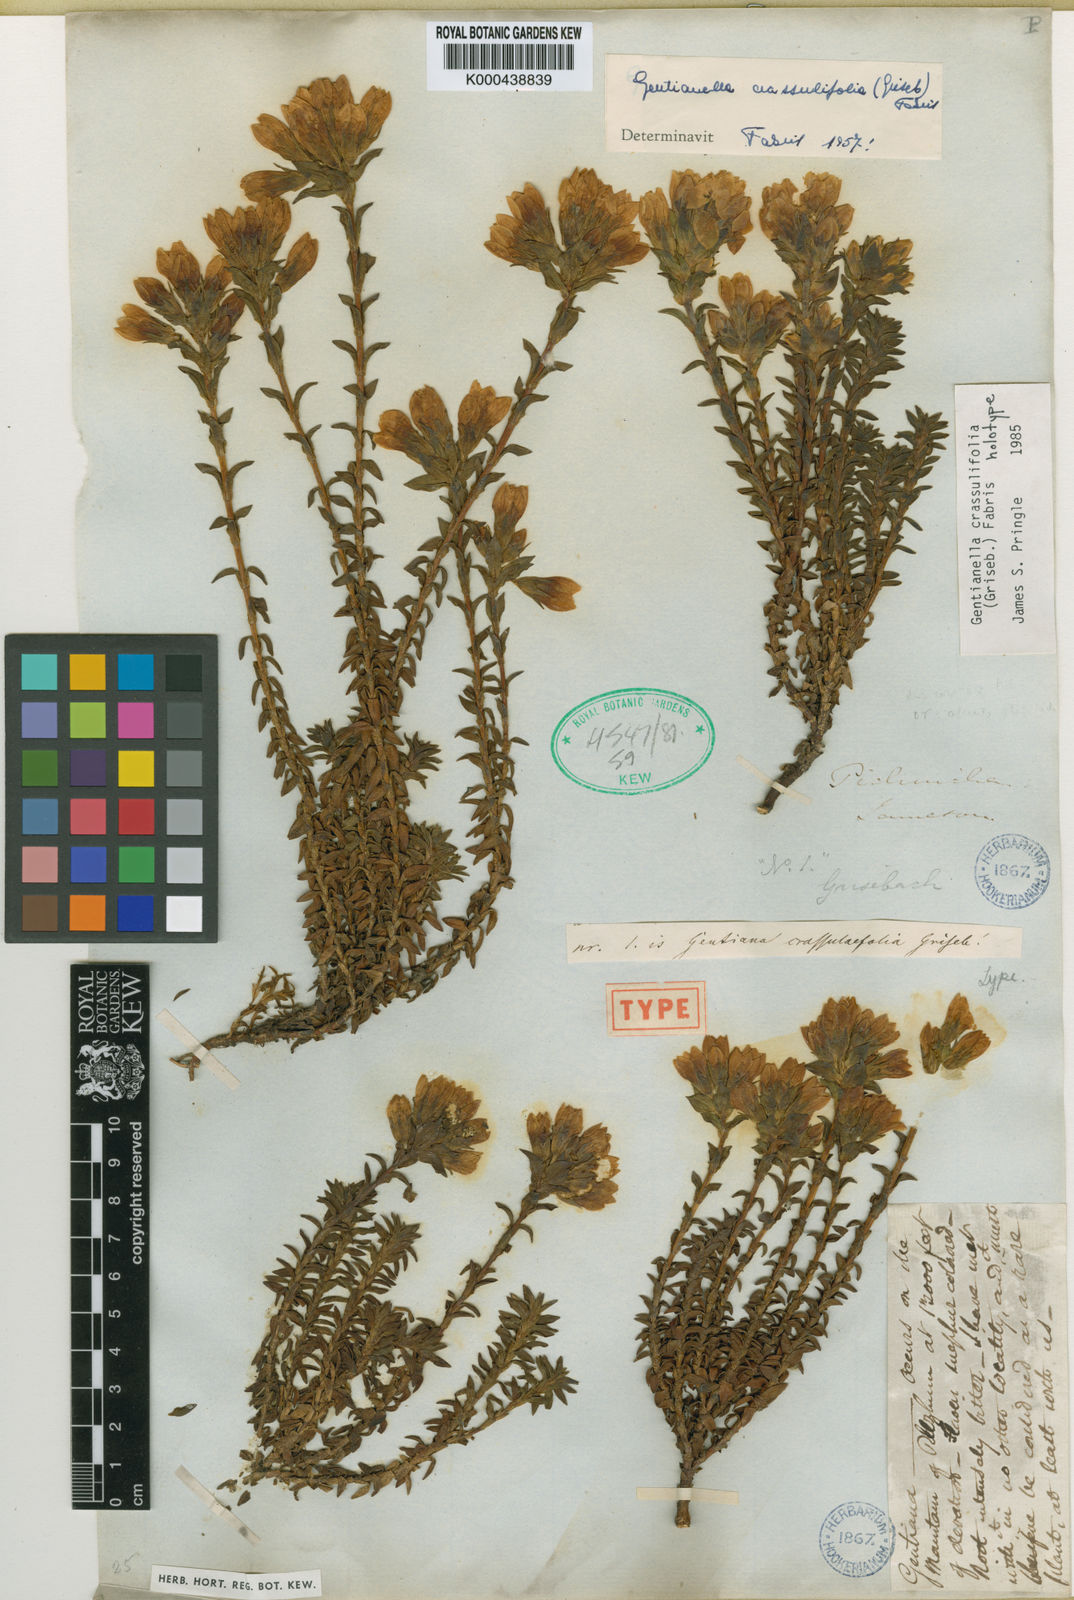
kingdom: Plantae
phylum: Tracheophyta
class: Magnoliopsida
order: Gentianales
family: Gentianaceae
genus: Gentianella
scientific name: Gentianella crassulifolia
